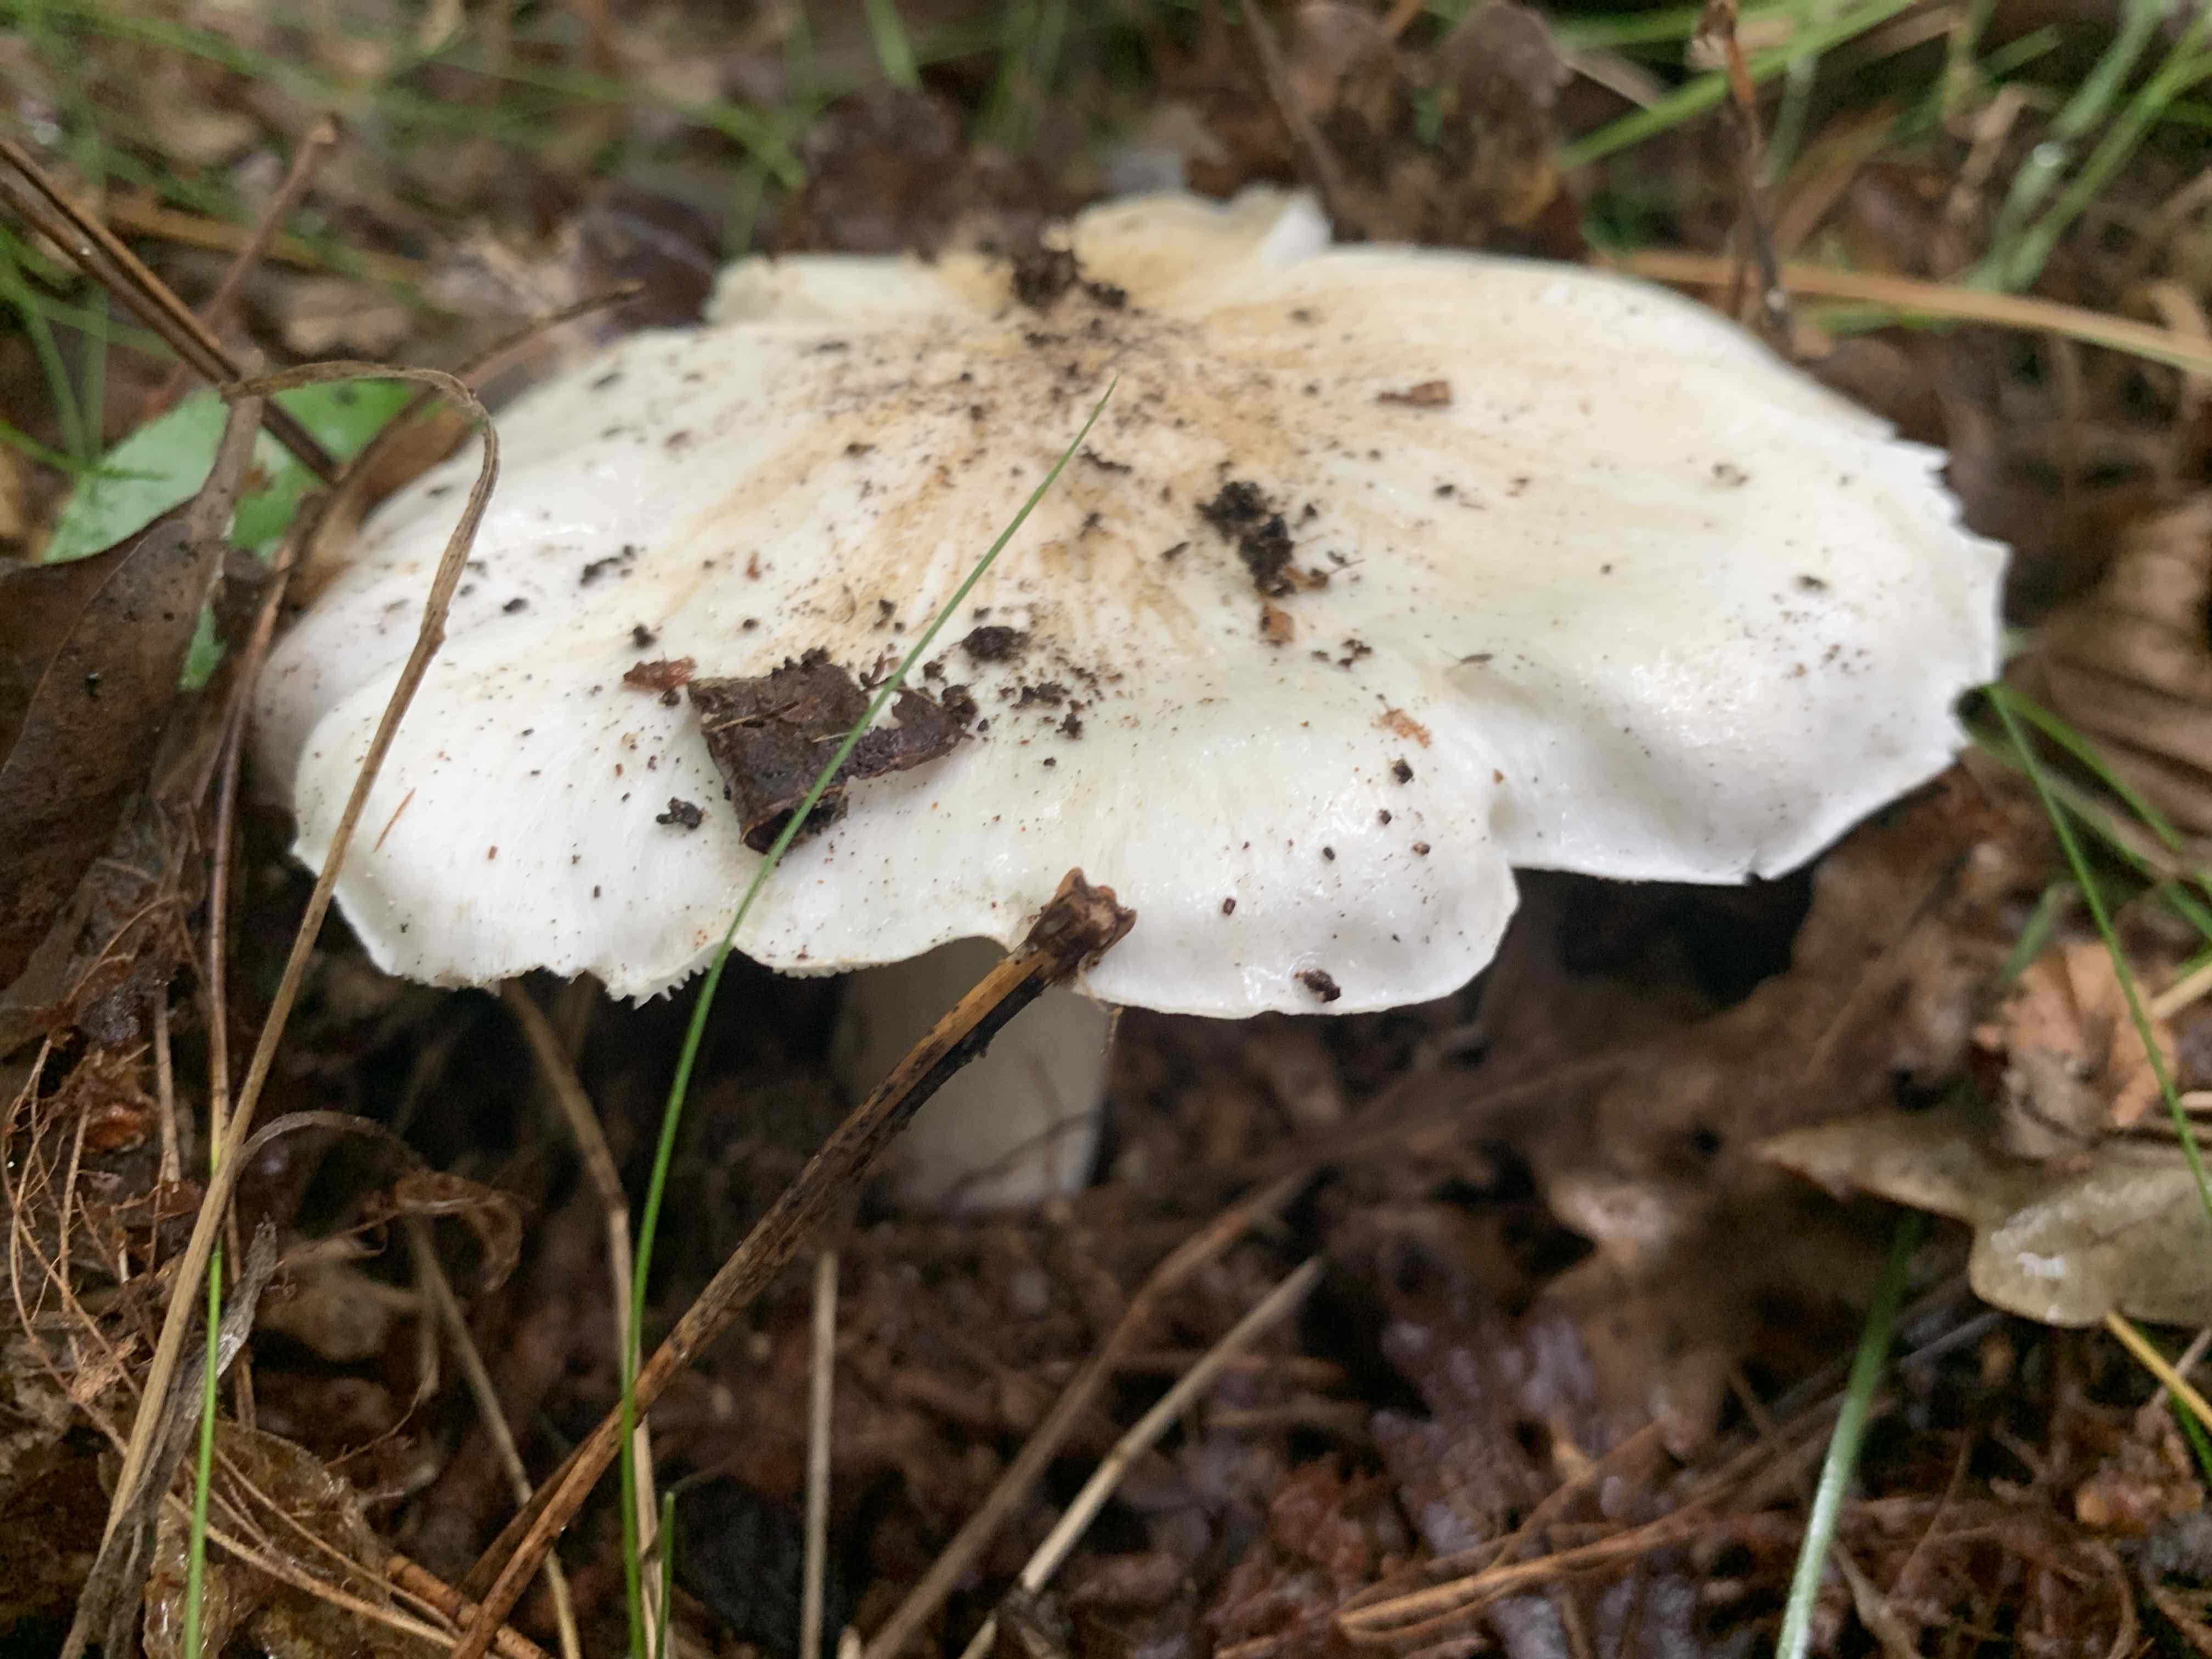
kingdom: Fungi
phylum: Basidiomycota
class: Agaricomycetes
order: Agaricales
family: Tricholomataceae
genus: Tricholoma
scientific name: Tricholoma columbetta
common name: silke-ridderhat
